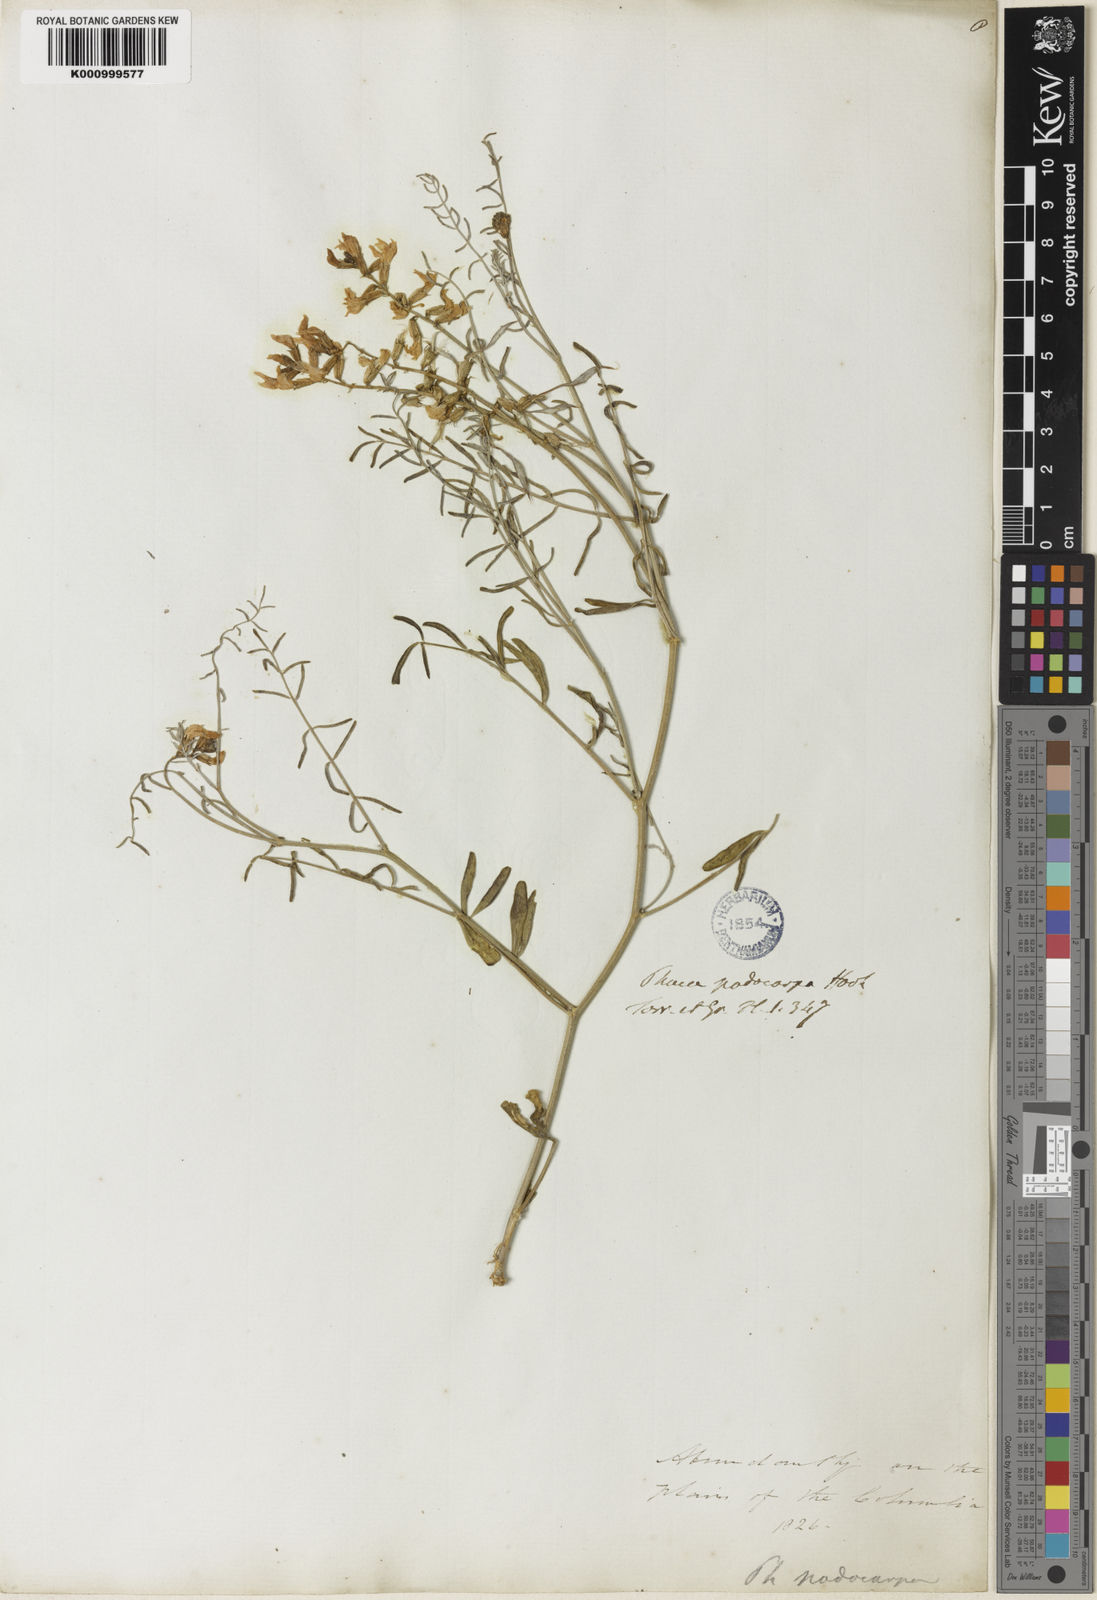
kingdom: Plantae
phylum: Tracheophyta
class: Magnoliopsida
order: Fabales
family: Fabaceae
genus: Astragalus
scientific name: Astragalus podocarpus
